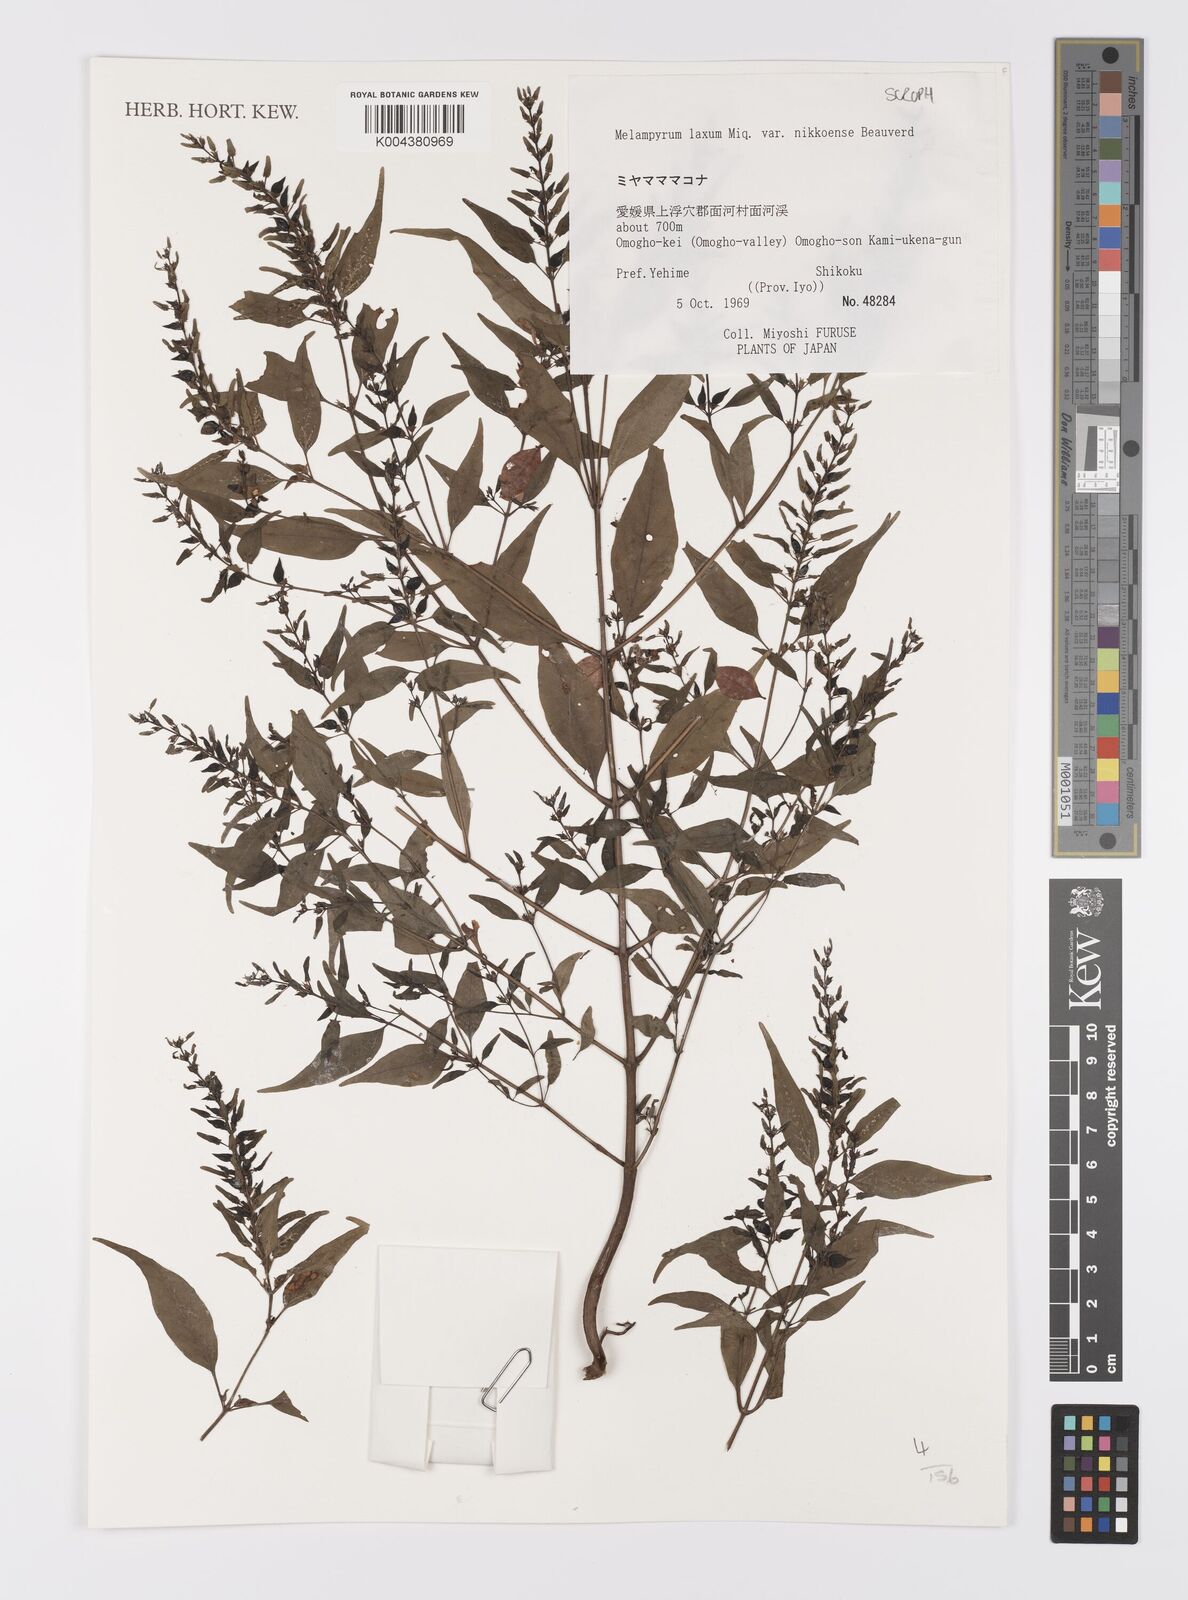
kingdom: Plantae
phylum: Tracheophyta
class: Magnoliopsida
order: Lamiales
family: Orobanchaceae
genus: Melampyrum
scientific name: Melampyrum laxum
